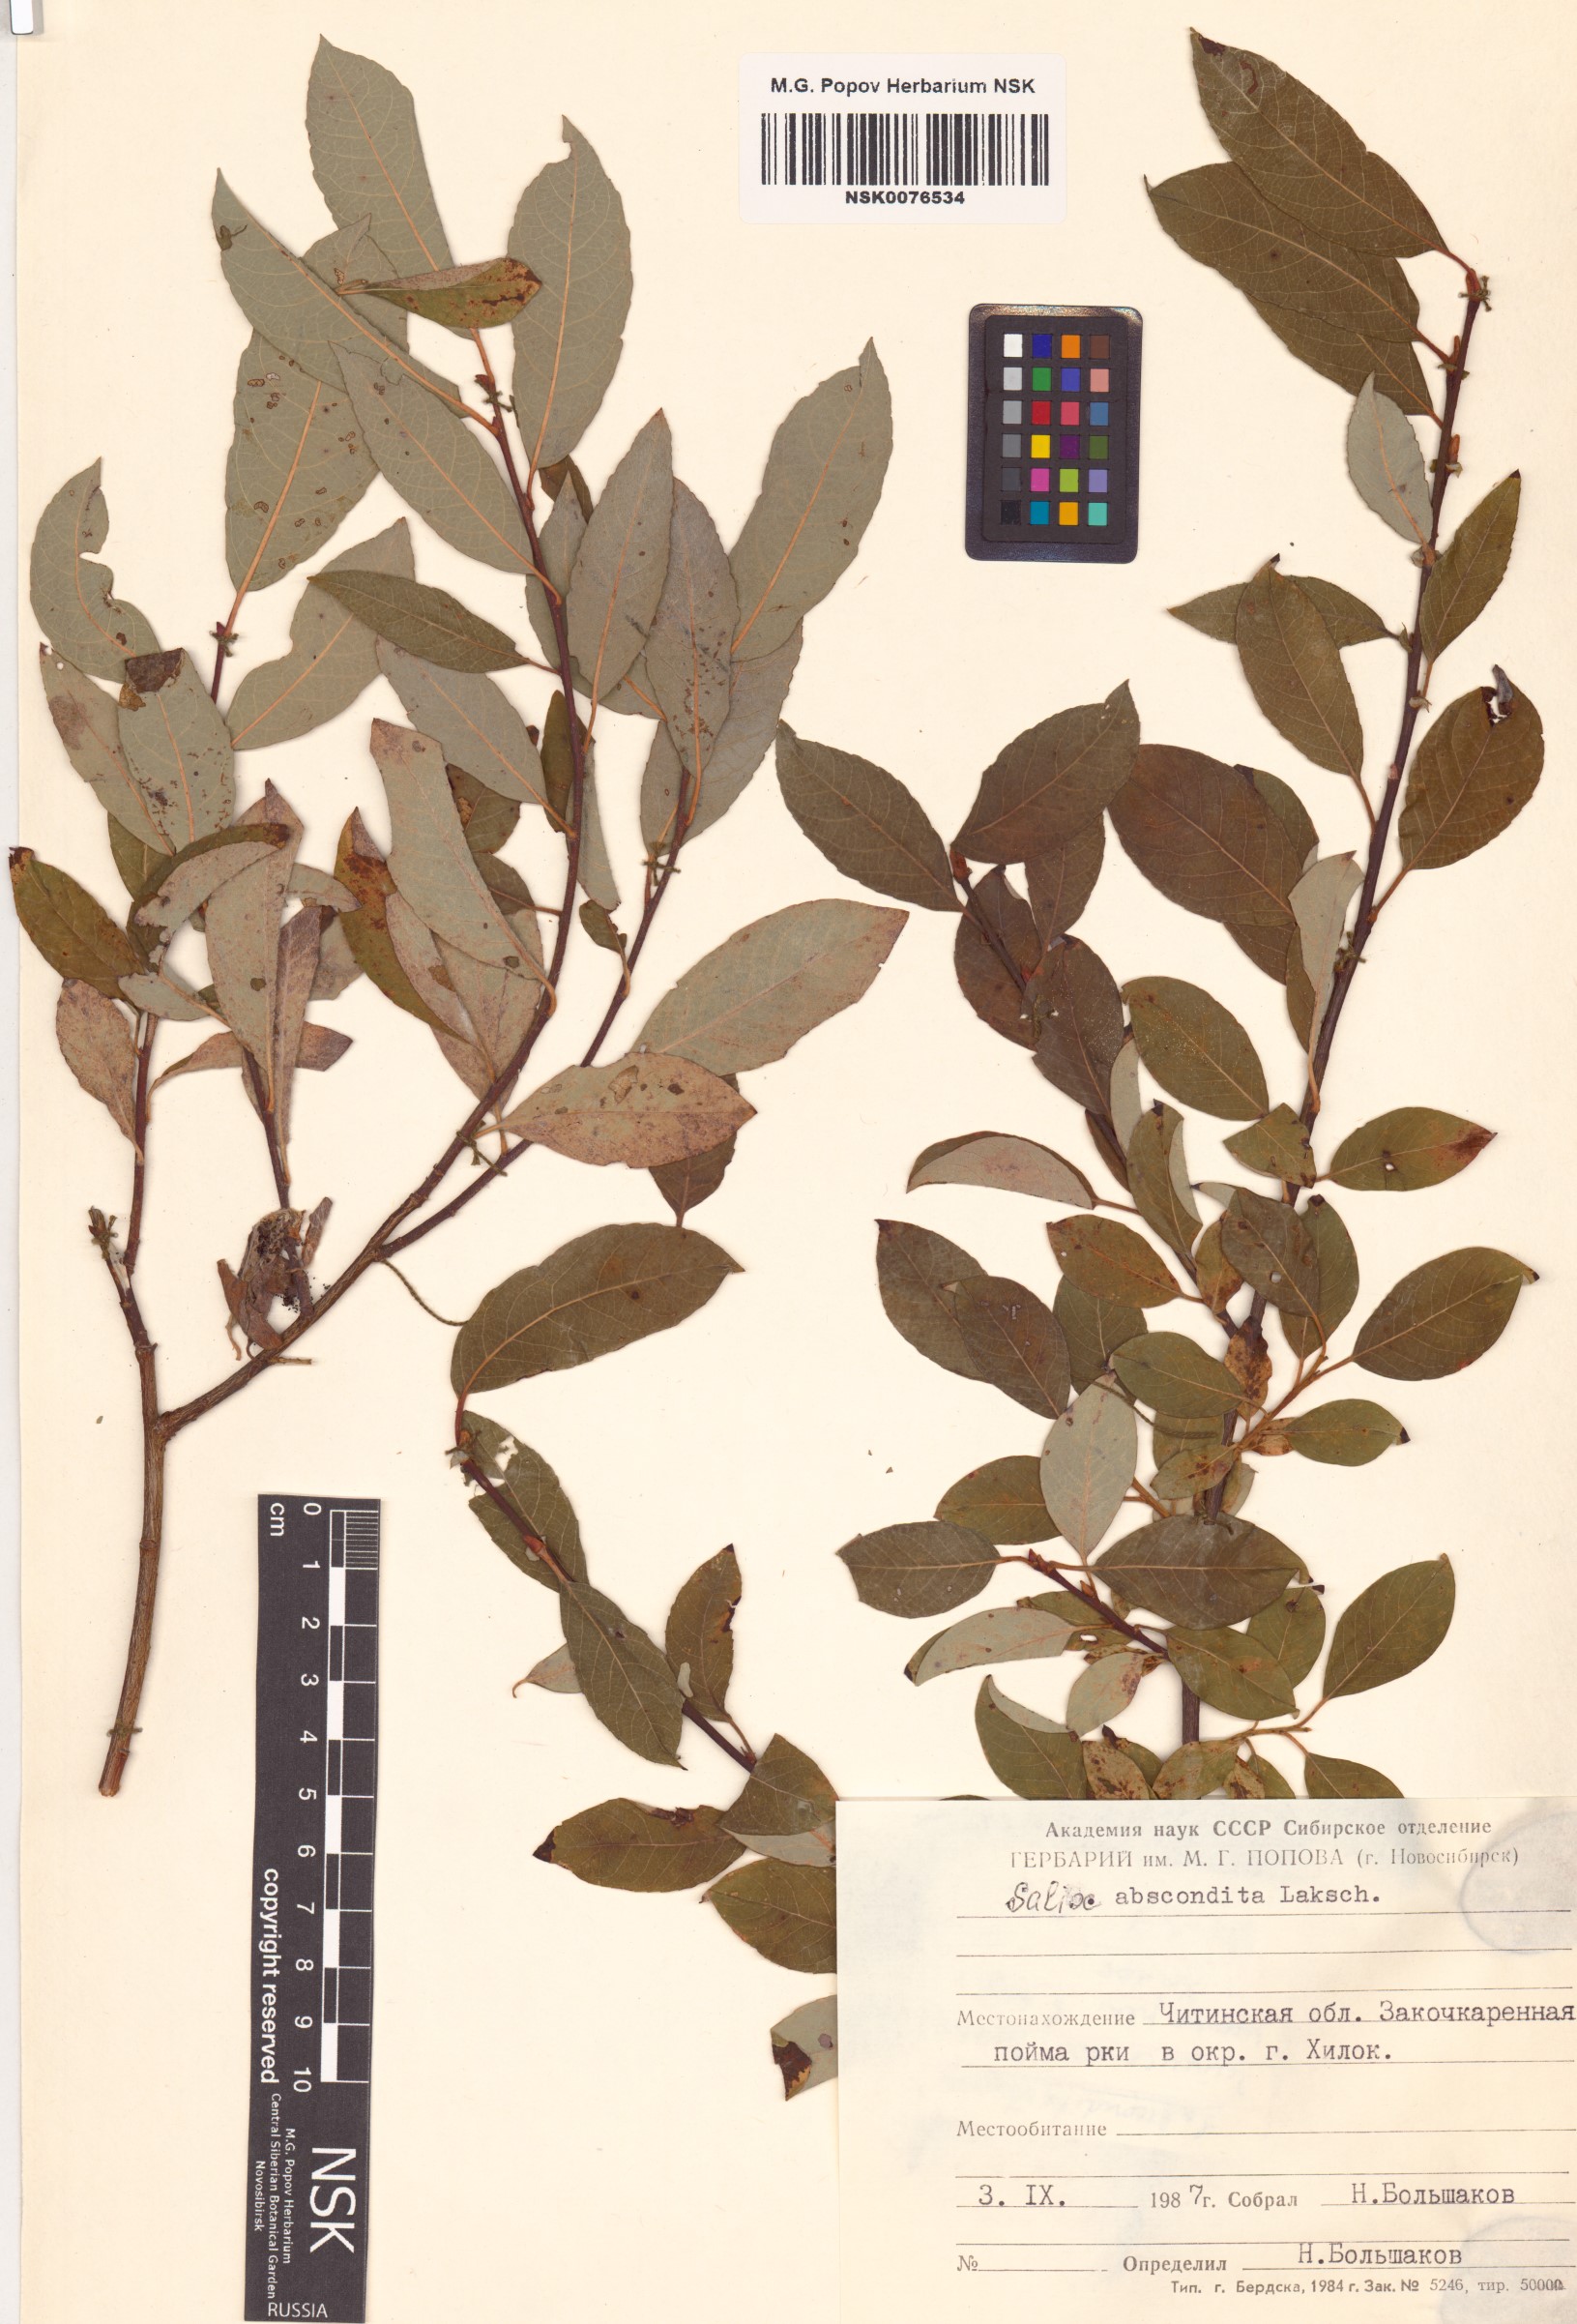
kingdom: Plantae
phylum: Tracheophyta
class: Magnoliopsida
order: Malpighiales
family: Salicaceae
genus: Salix
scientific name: Salix abscondita
